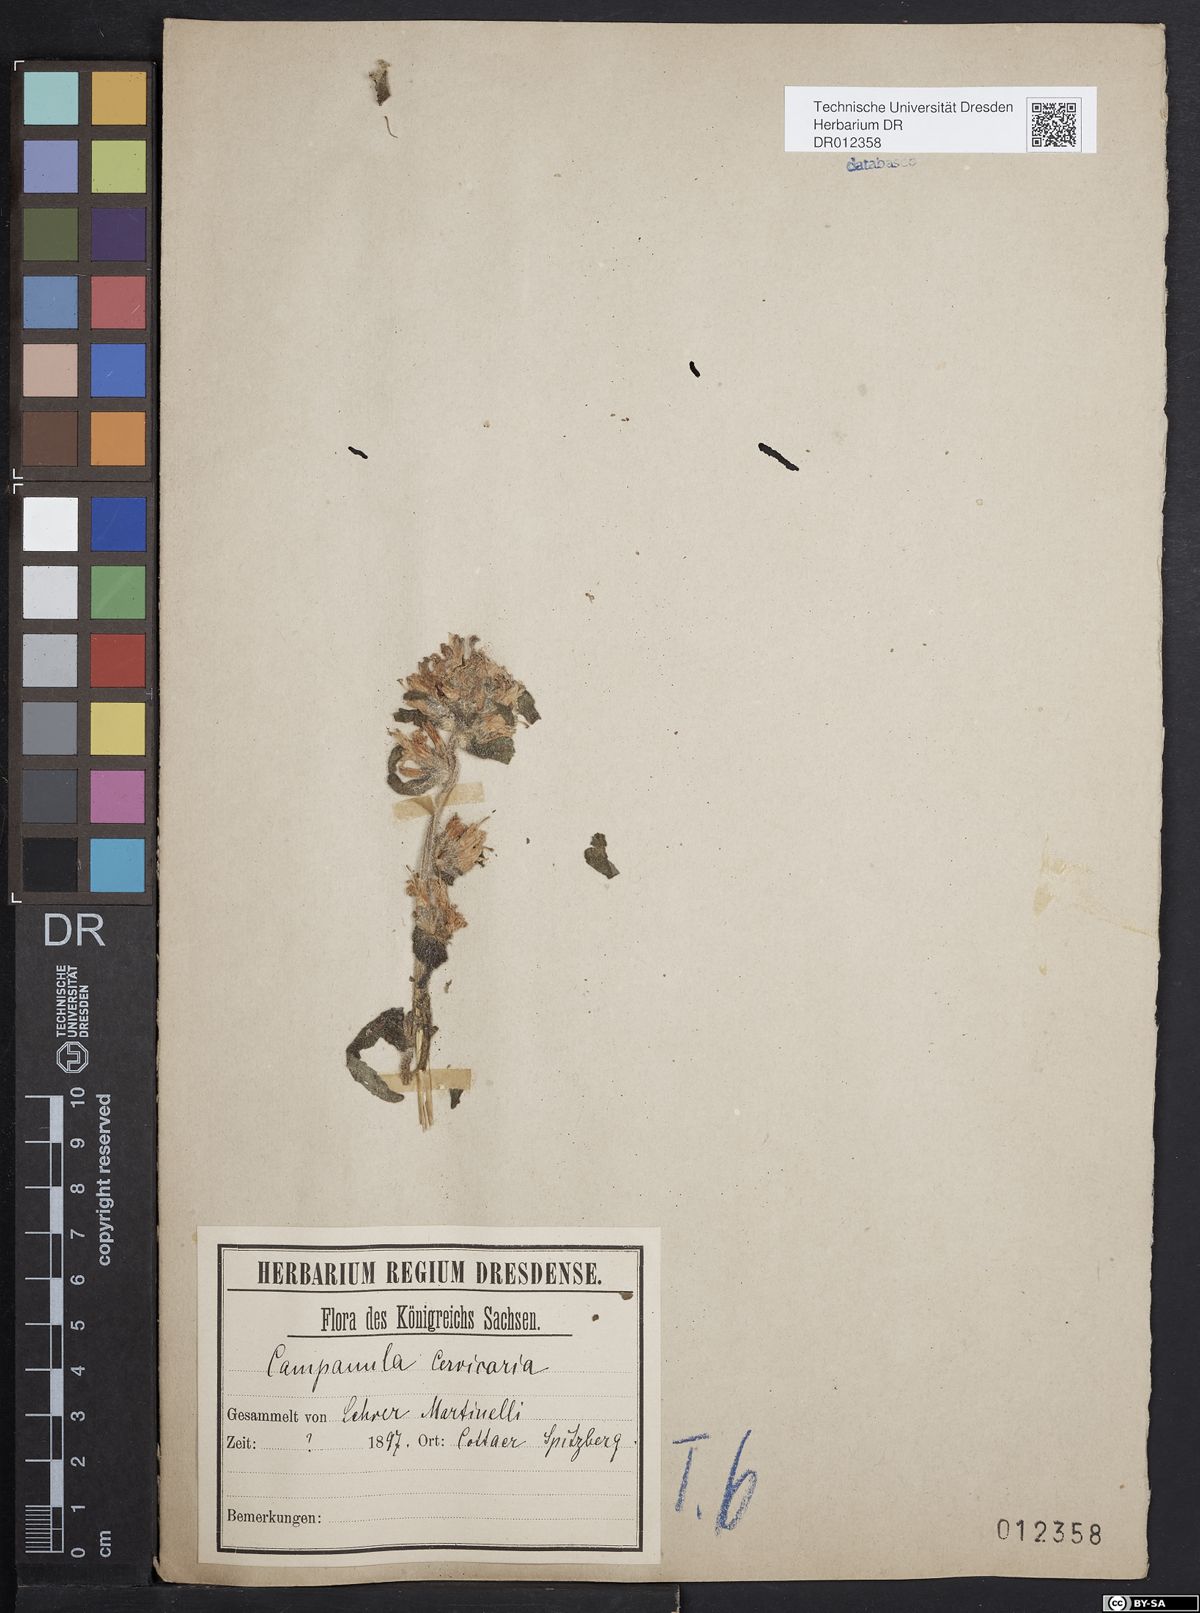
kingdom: Plantae
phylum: Tracheophyta
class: Magnoliopsida
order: Asterales
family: Campanulaceae
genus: Campanula
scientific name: Campanula cervicaria
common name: Bristly bellflower
